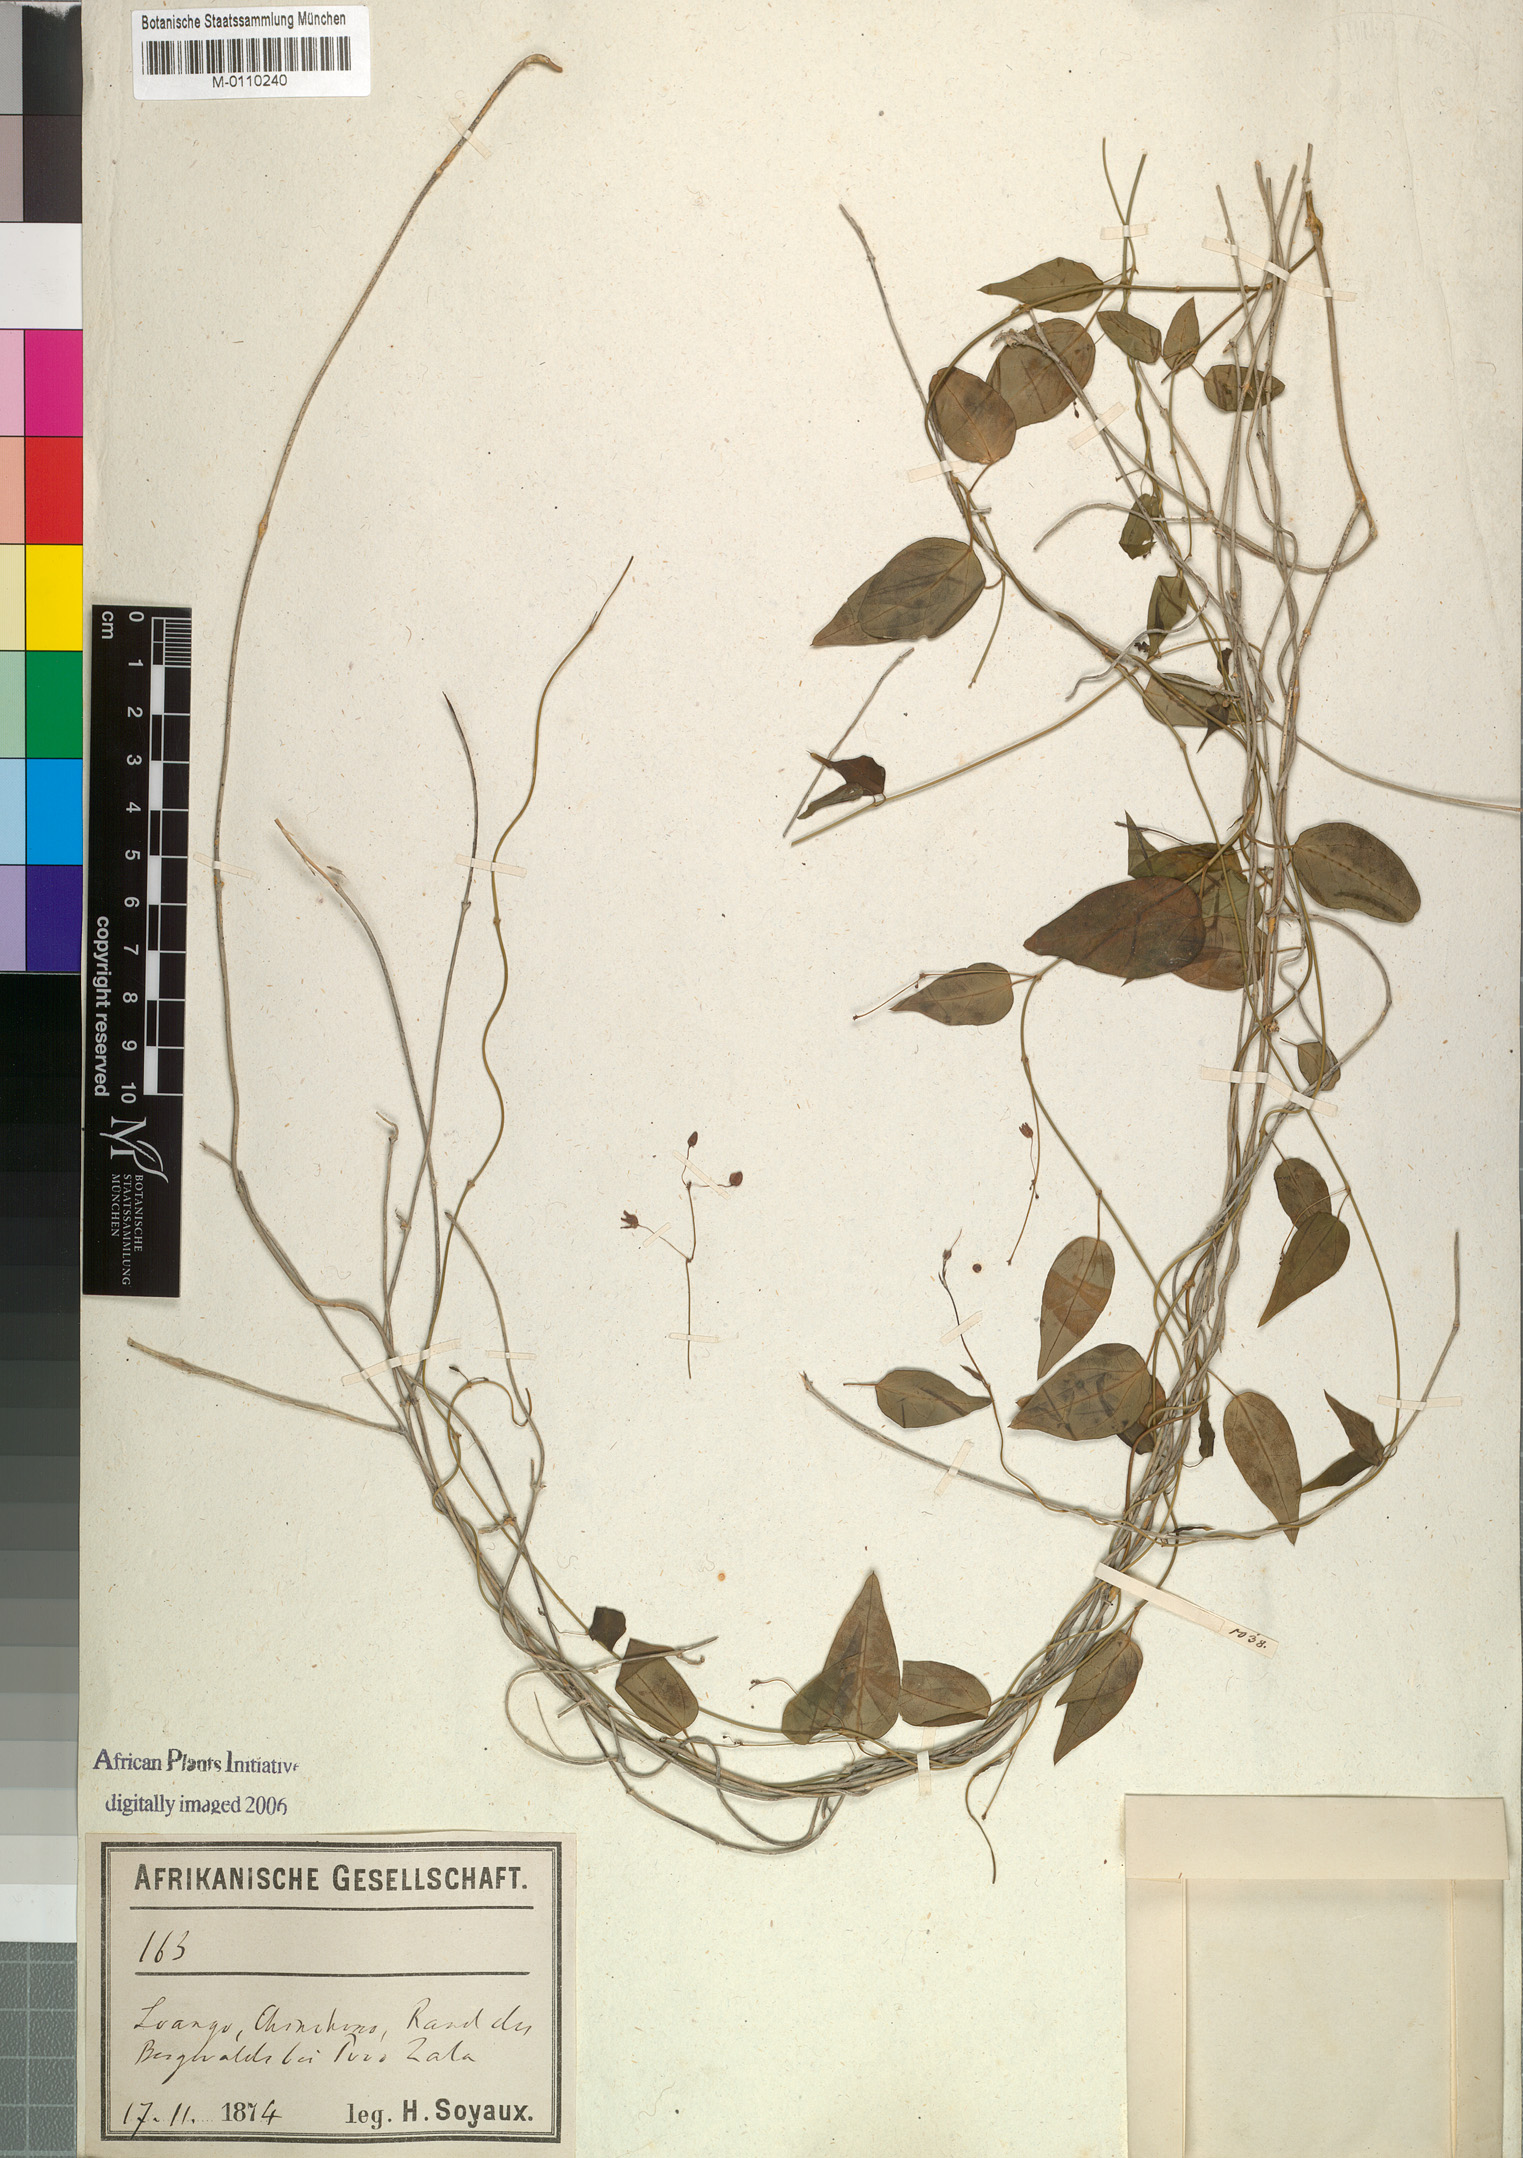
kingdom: Plantae
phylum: Tracheophyta
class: Magnoliopsida
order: Gentianales
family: Apocynaceae
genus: Vincetoxicum
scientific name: Vincetoxicum tenuipedunculatum
